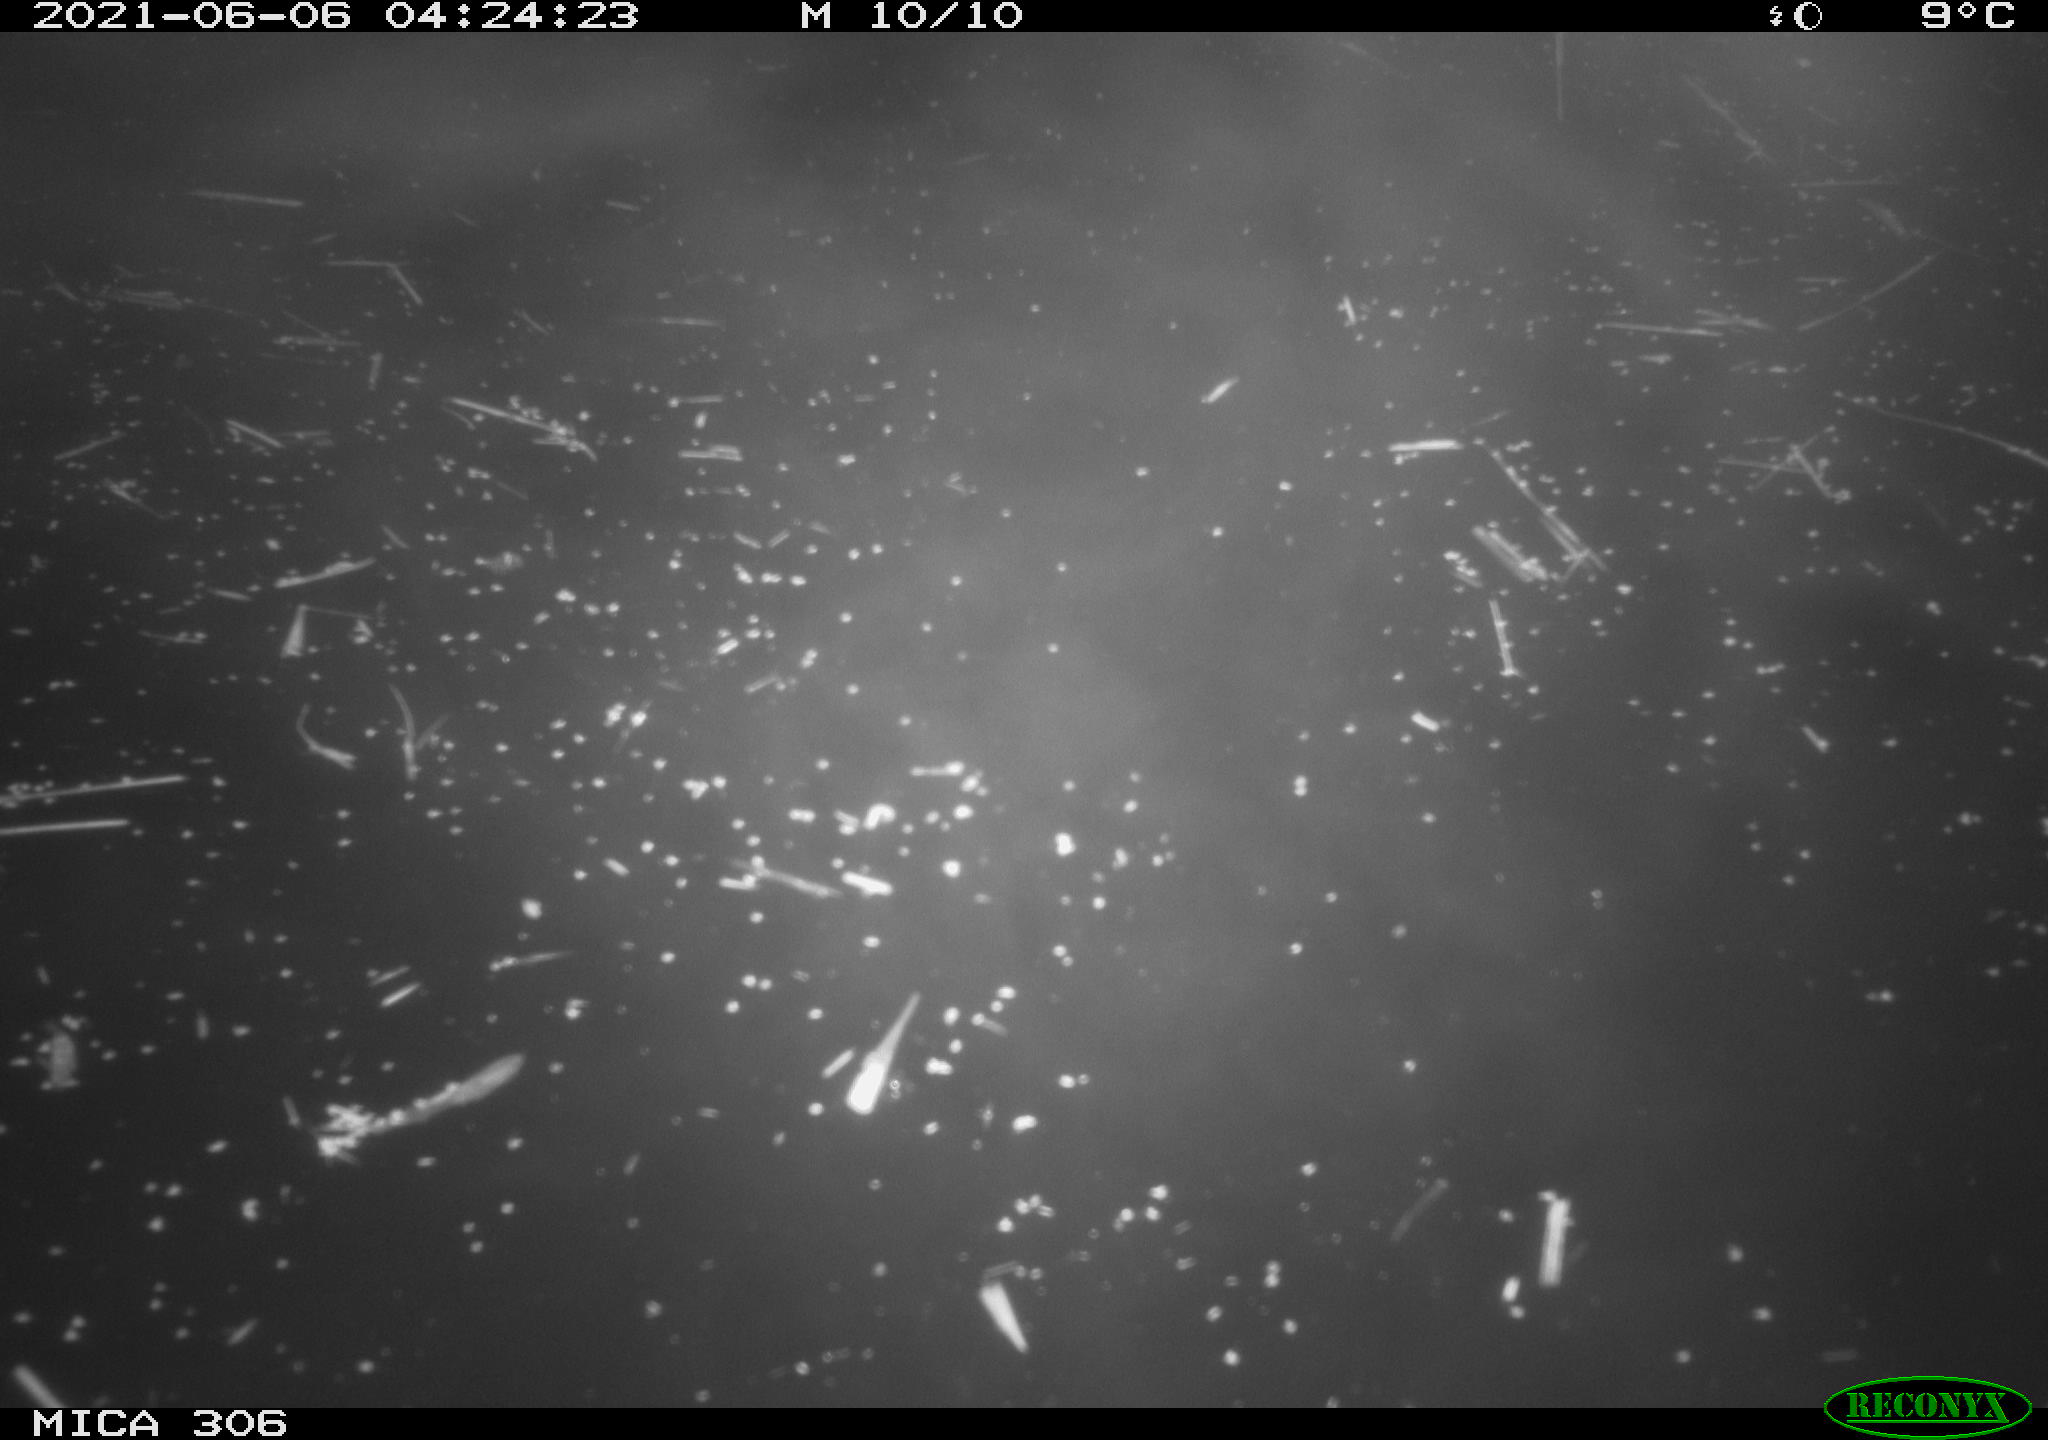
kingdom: Animalia
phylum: Chordata
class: Mammalia
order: Rodentia
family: Cricetidae
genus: Ondatra
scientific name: Ondatra zibethicus
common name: Muskrat
